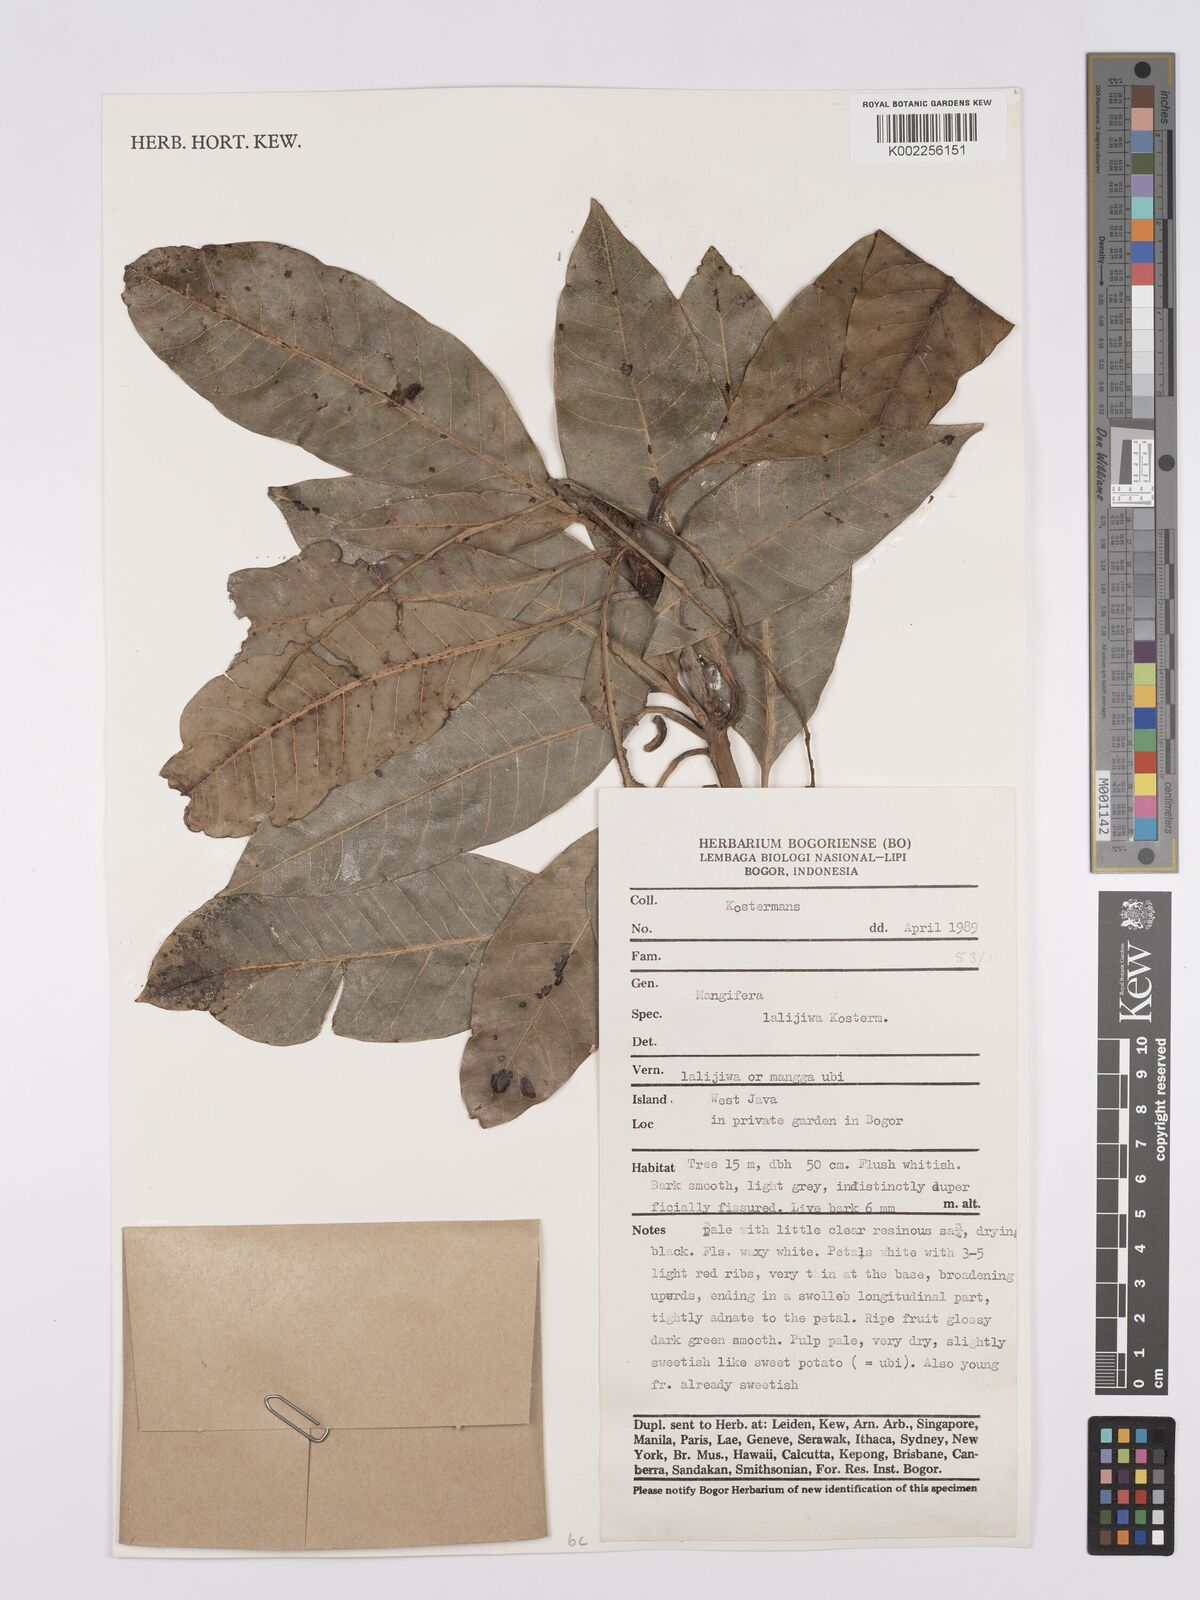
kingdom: Plantae
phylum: Tracheophyta
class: Magnoliopsida
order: Sapindales
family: Anacardiaceae
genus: Mangifera
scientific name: Mangifera lalijiwa
